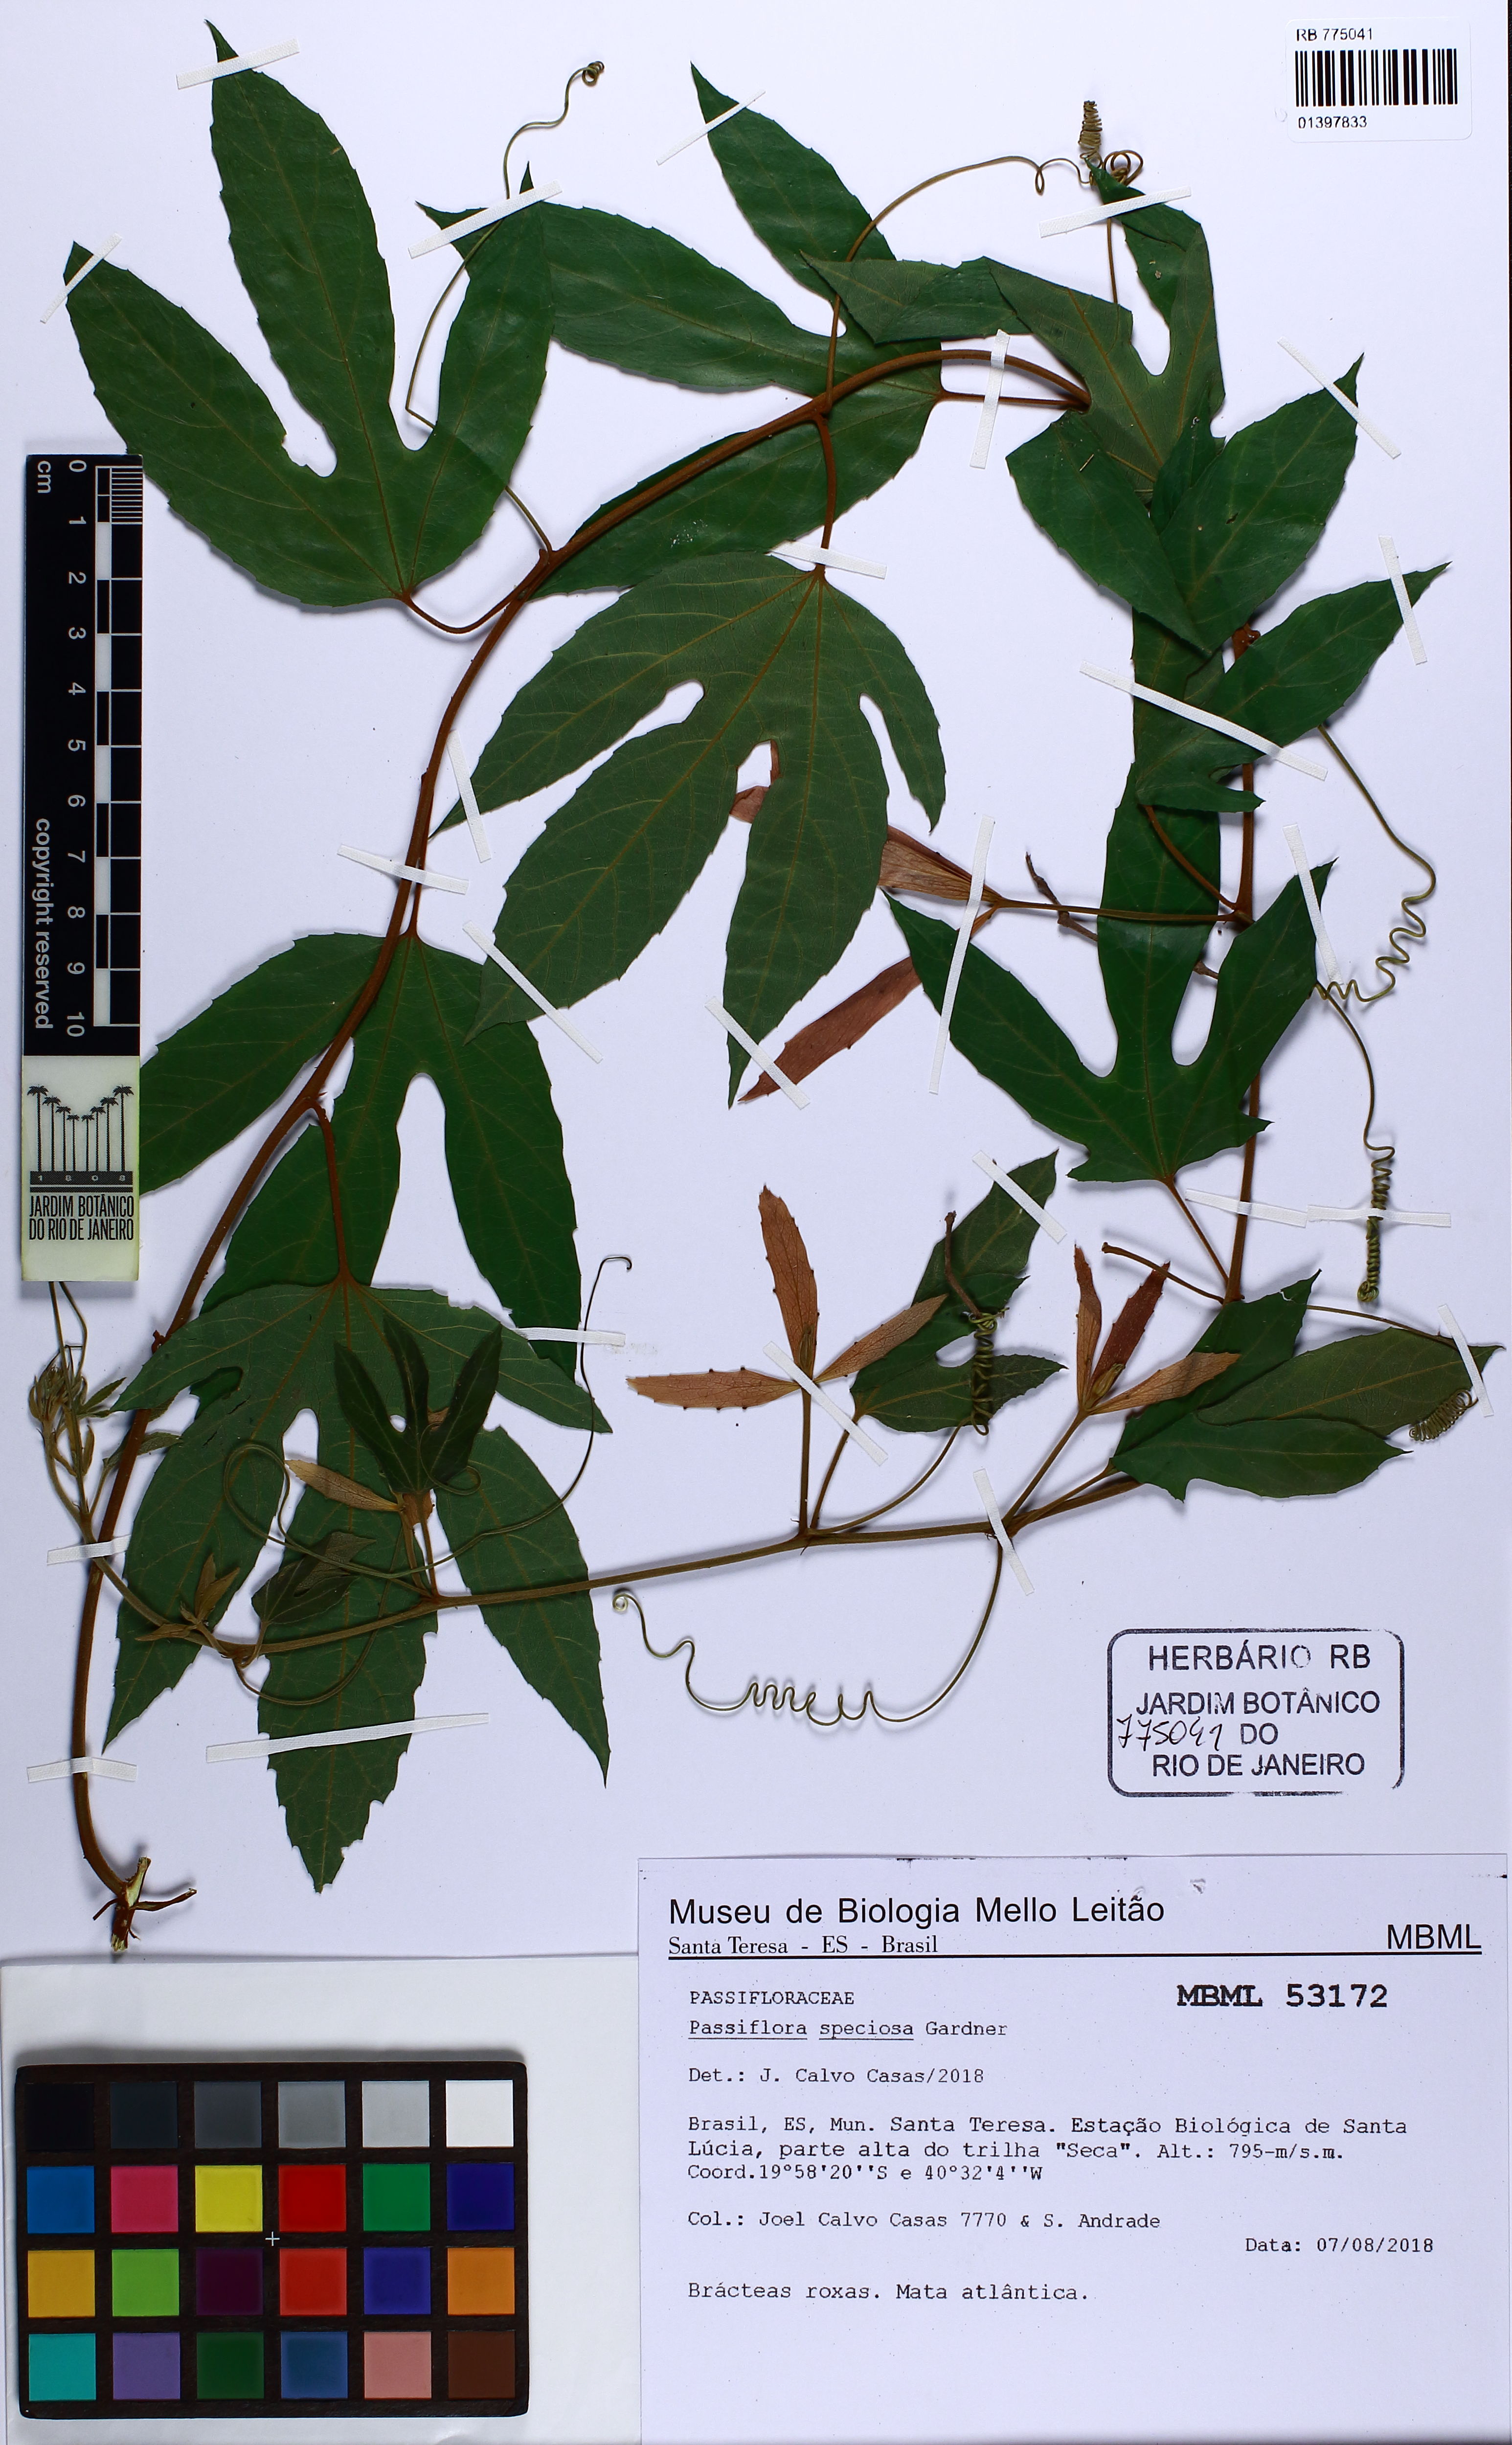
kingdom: Plantae
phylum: Tracheophyta
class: Magnoliopsida
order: Malpighiales
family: Passifloraceae
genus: Passiflora
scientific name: Passiflora speciosa
